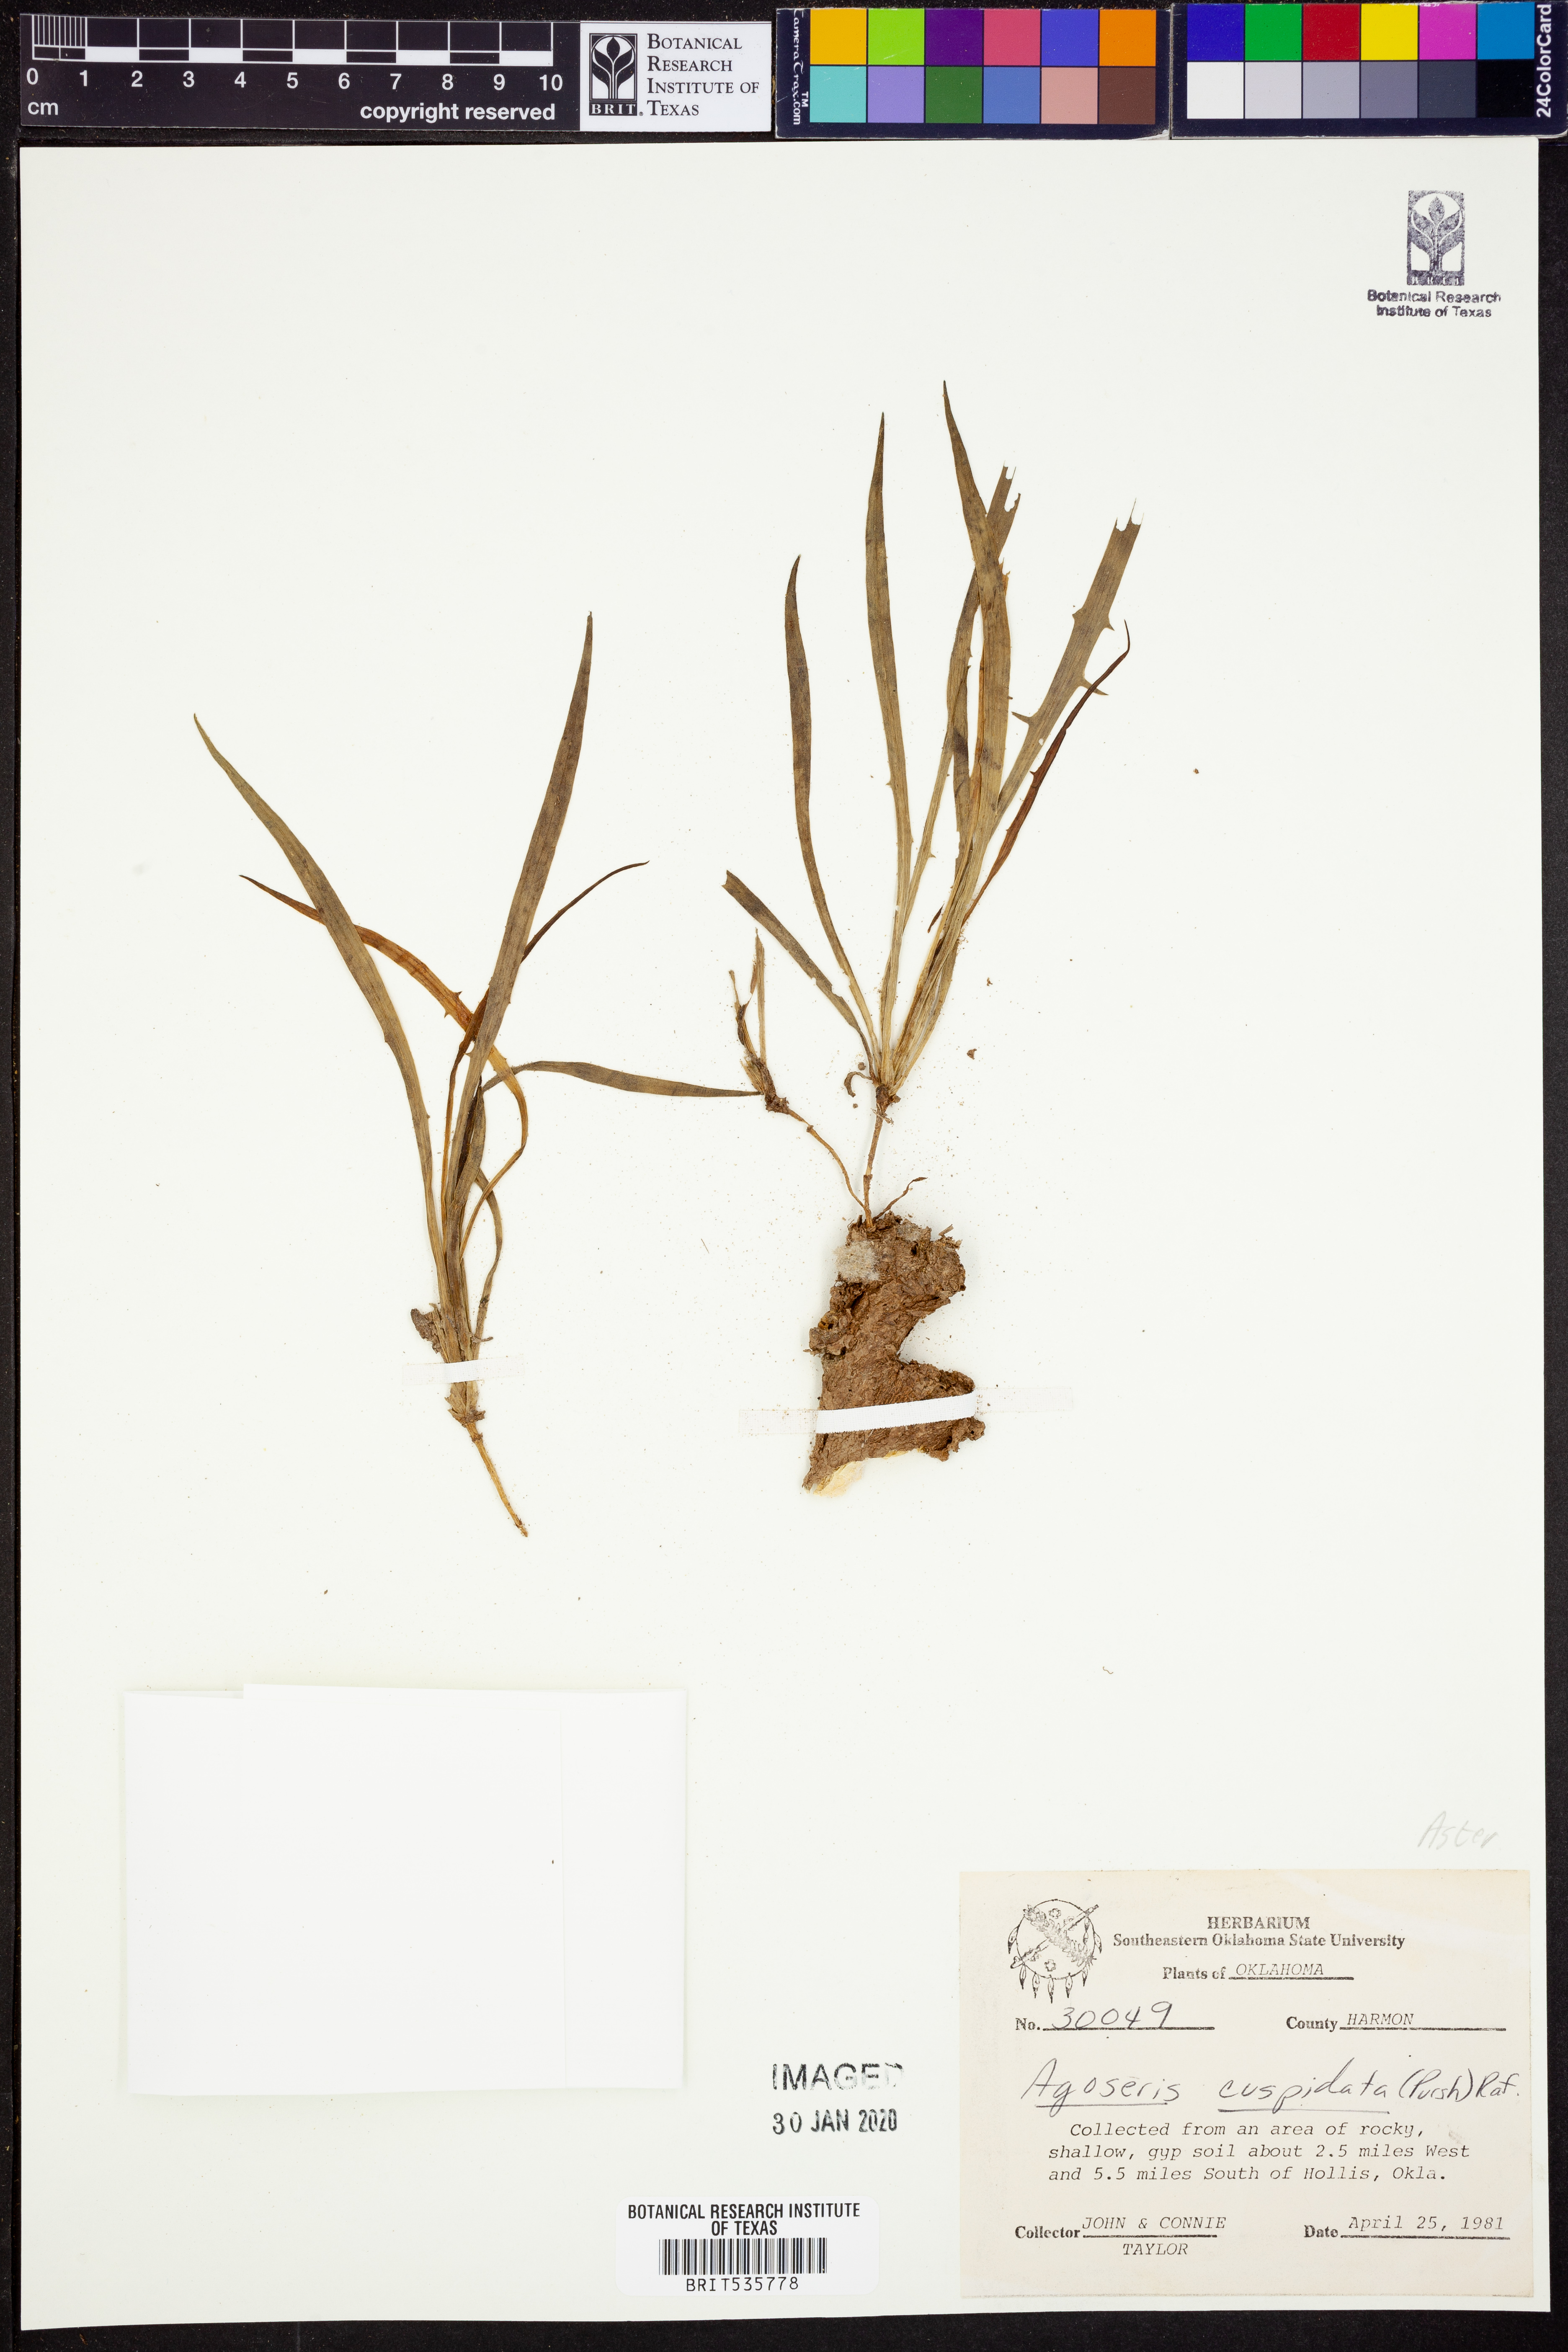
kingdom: Plantae
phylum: Tracheophyta
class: Magnoliopsida
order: Asterales
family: Asteraceae
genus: Microseris
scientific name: Microseris cuspidata
